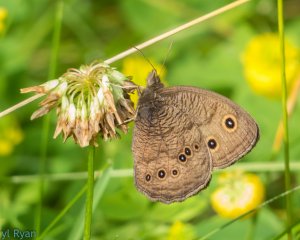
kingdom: Animalia
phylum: Arthropoda
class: Insecta
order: Lepidoptera
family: Nymphalidae
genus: Cercyonis
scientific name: Cercyonis pegala
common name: Common Wood-Nymph
